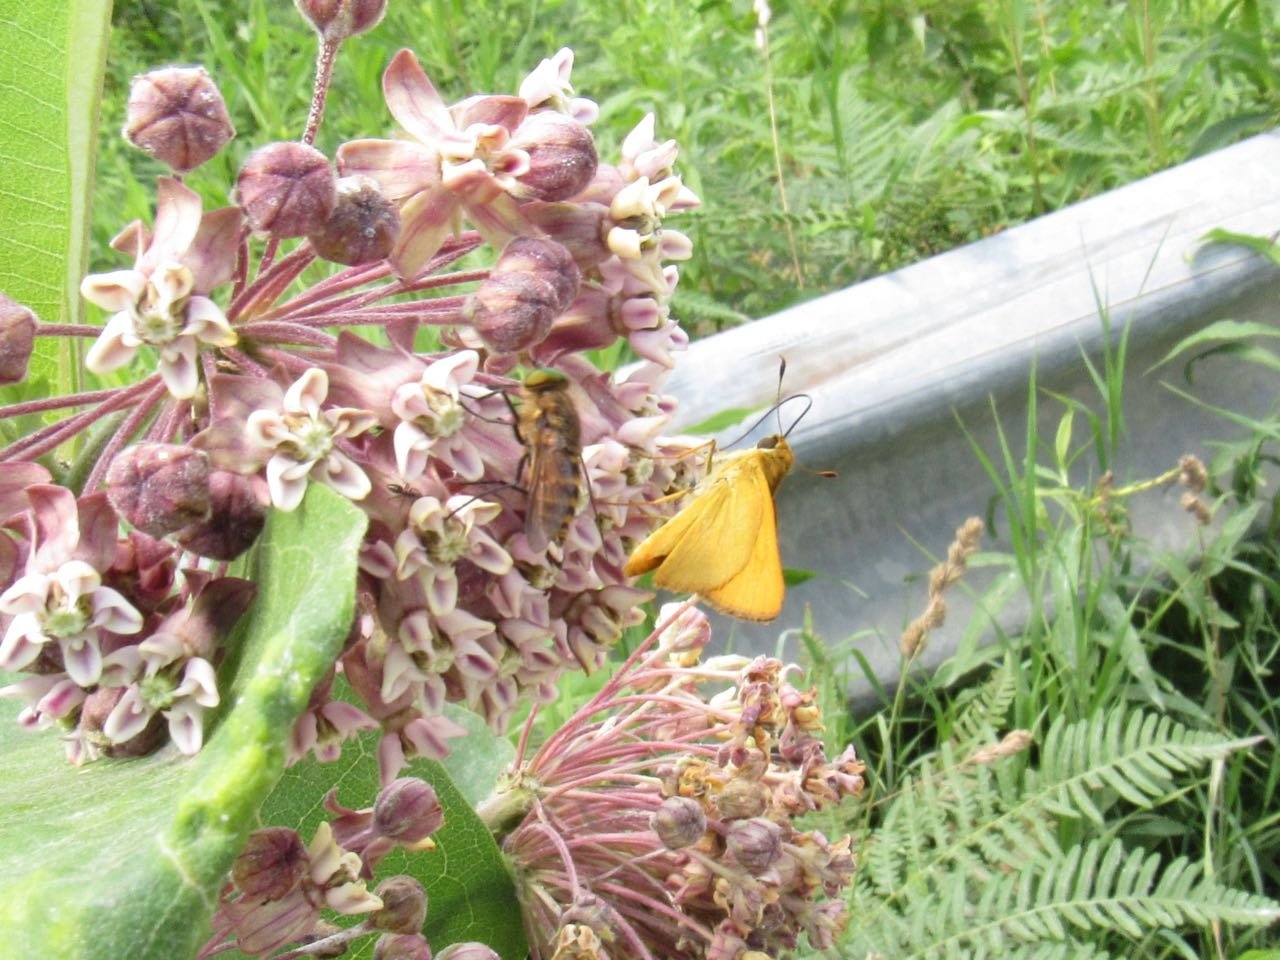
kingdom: Animalia
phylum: Arthropoda
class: Insecta
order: Lepidoptera
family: Hesperiidae
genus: Atrytone
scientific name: Atrytone delaware
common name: Delaware Skipper
